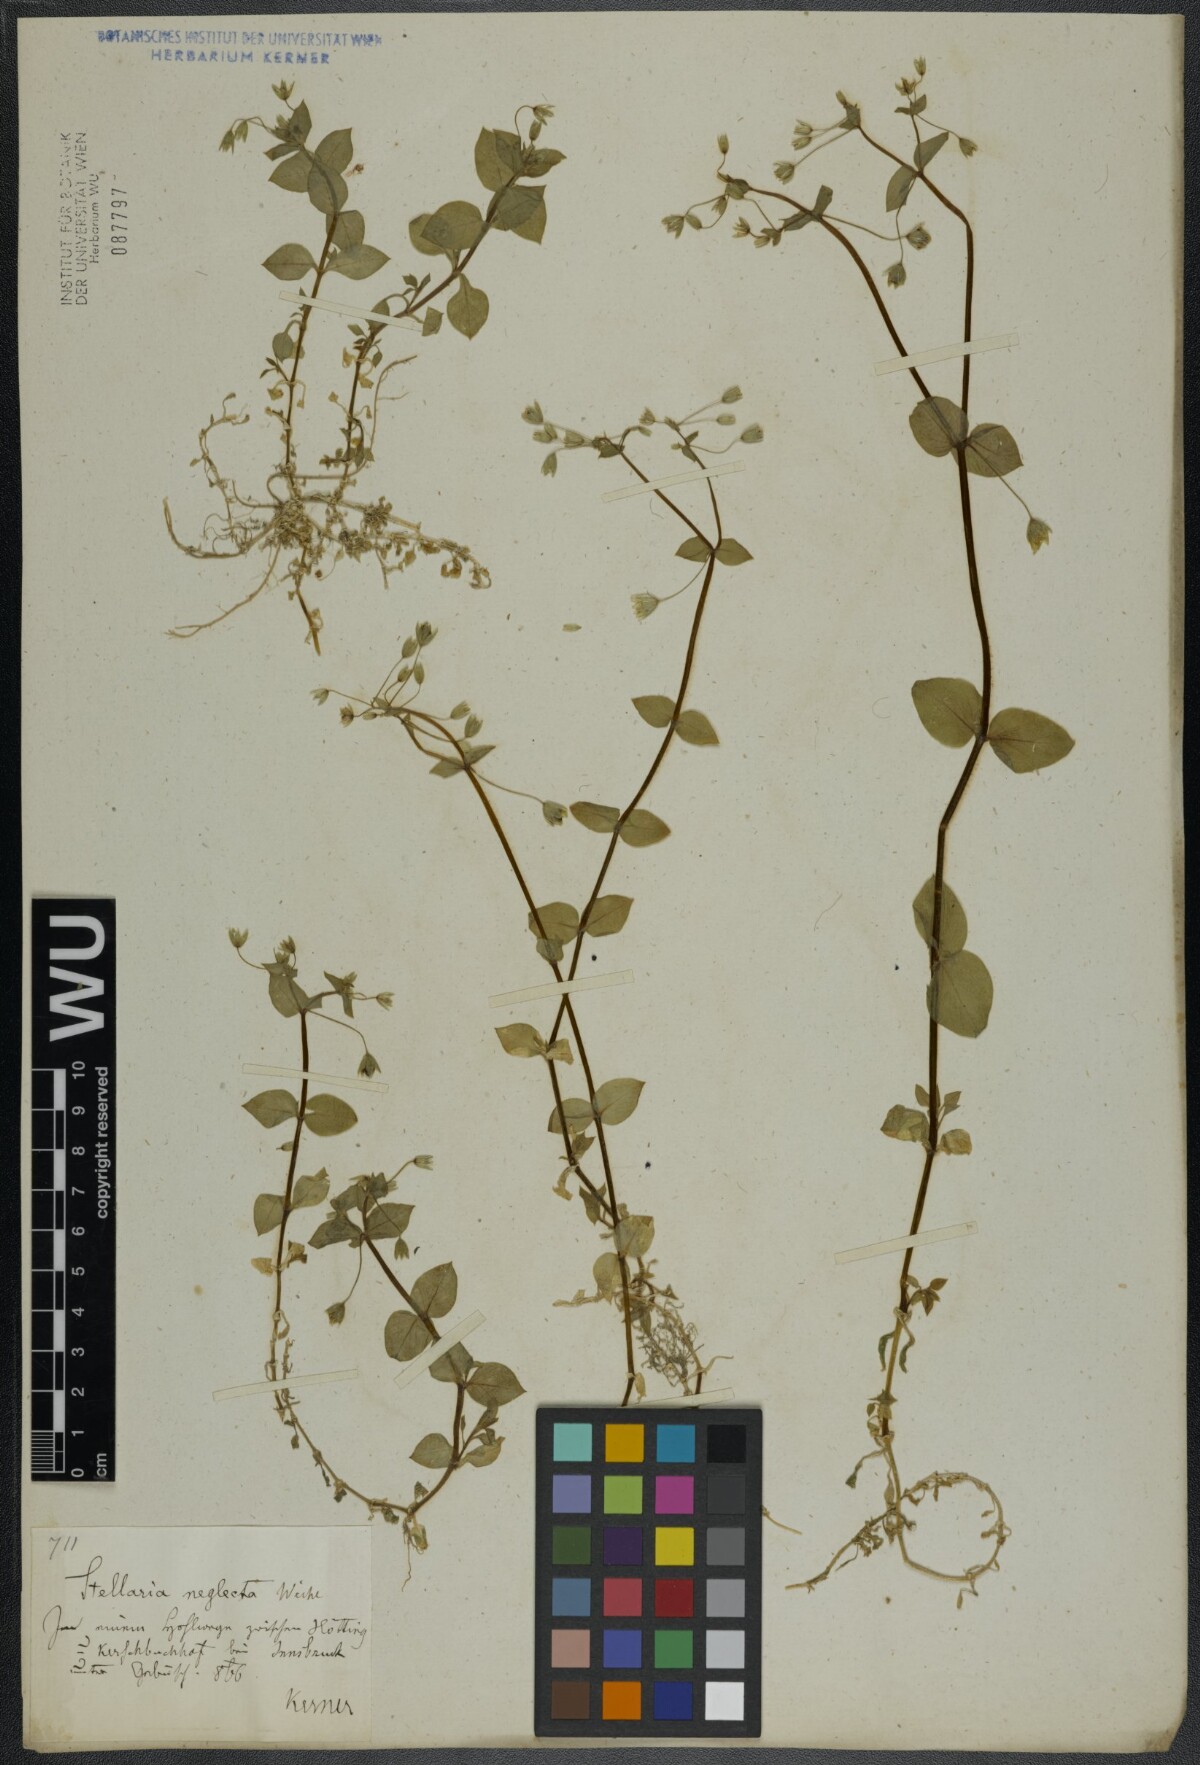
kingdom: Plantae
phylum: Tracheophyta
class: Magnoliopsida
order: Caryophyllales
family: Caryophyllaceae
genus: Stellaria
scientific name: Stellaria neglecta
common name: Greater chickweed
